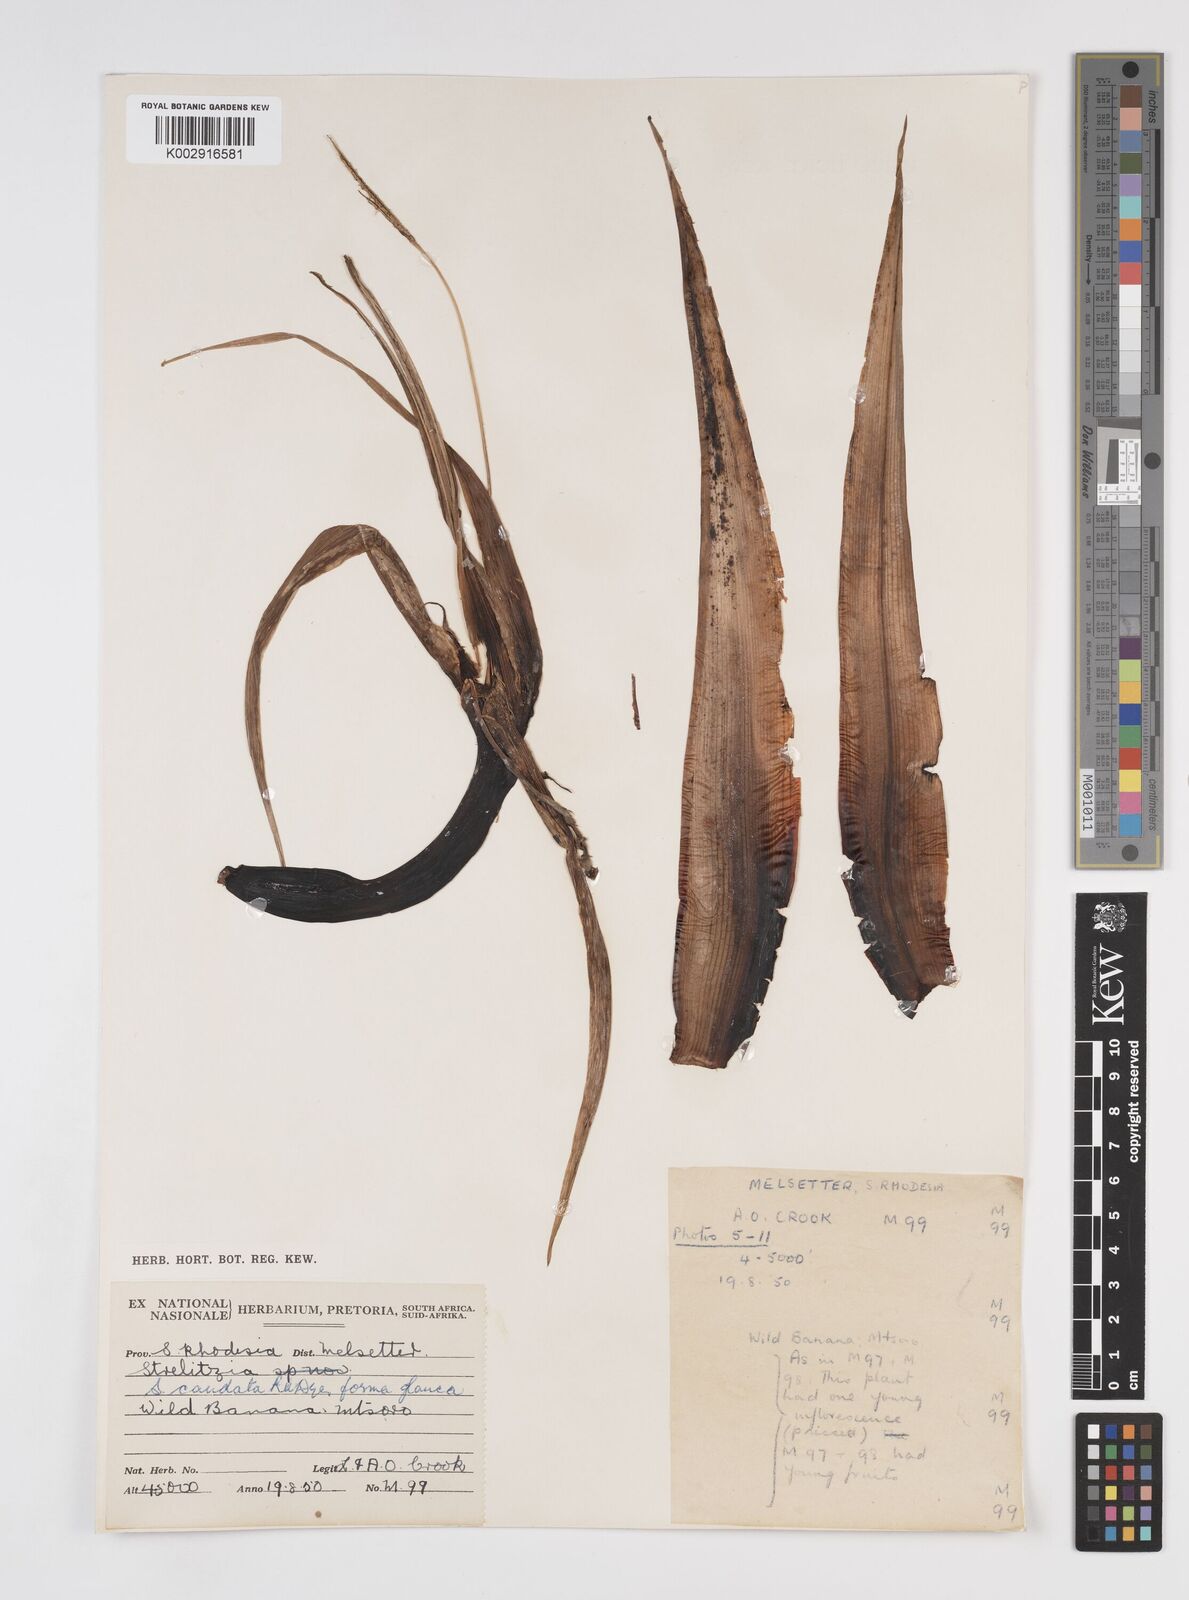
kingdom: Plantae
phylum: Tracheophyta
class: Liliopsida
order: Zingiberales
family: Strelitziaceae
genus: Strelitzia
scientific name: Strelitzia caudata
